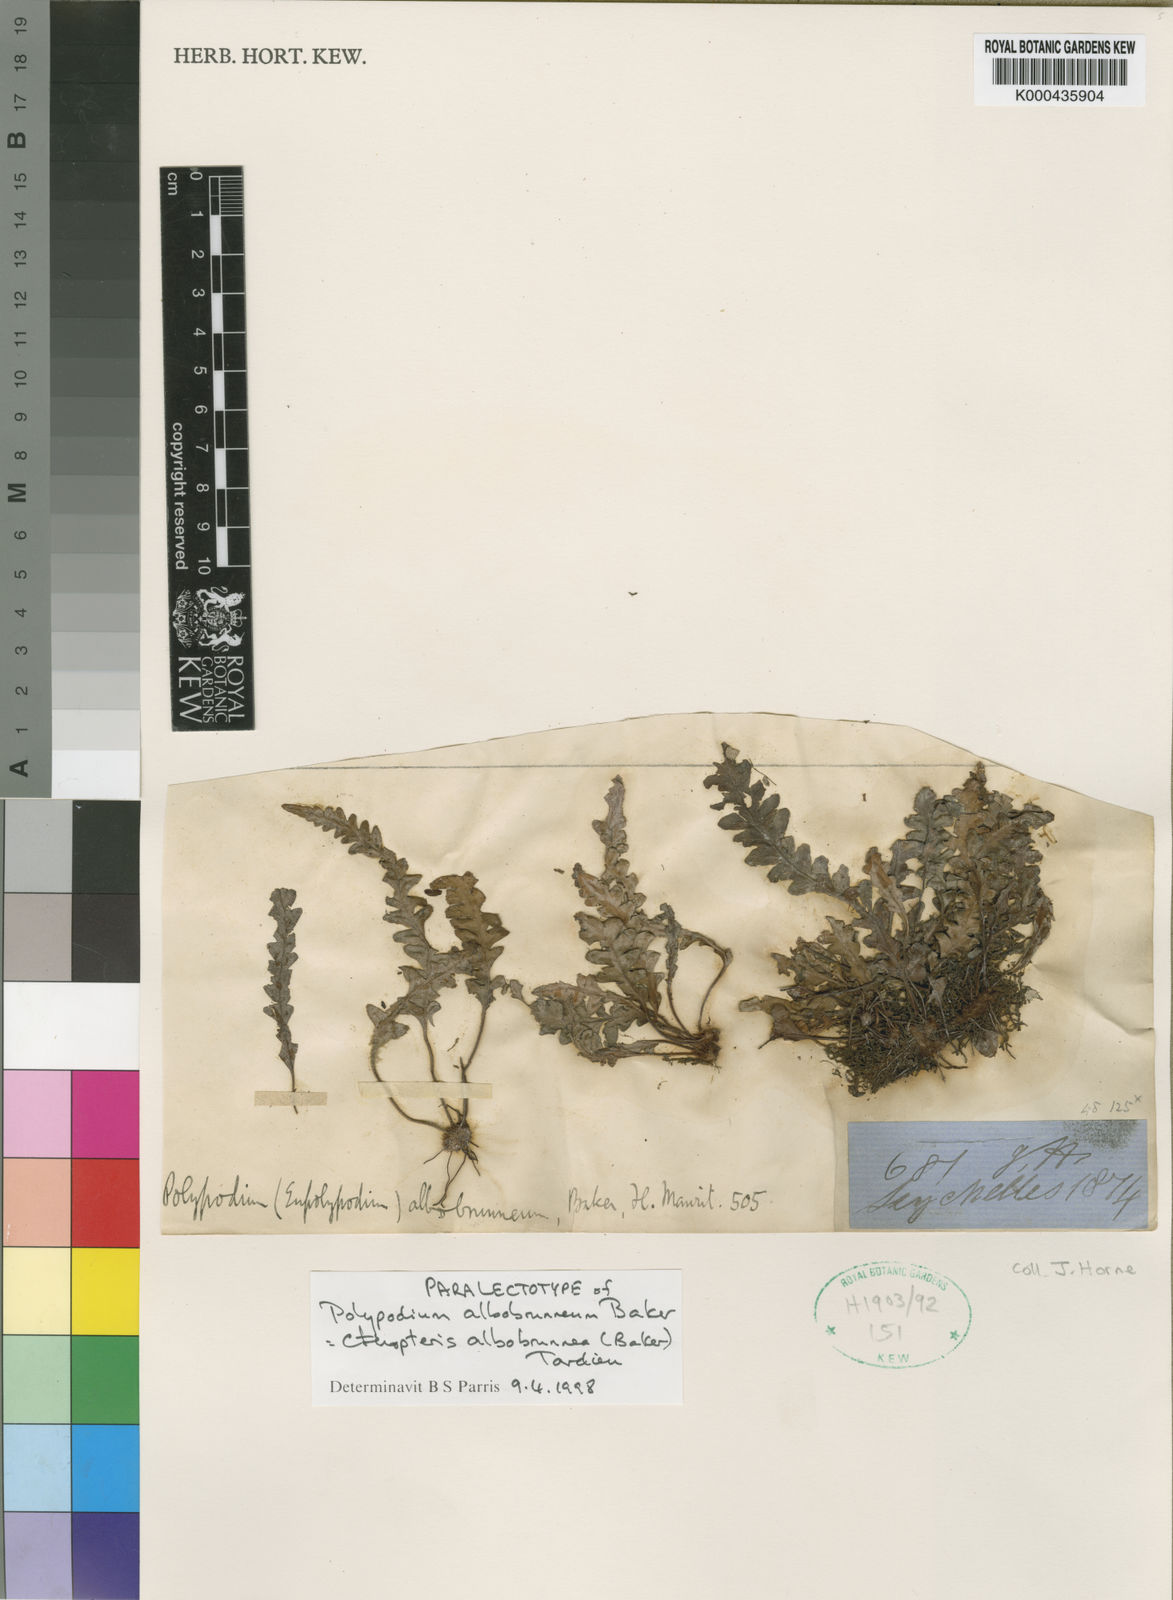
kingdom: Plantae
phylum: Tracheophyta
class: Polypodiopsida
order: Polypodiales
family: Polypodiaceae
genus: Ceradenia
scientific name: Ceradenia sechellarum
